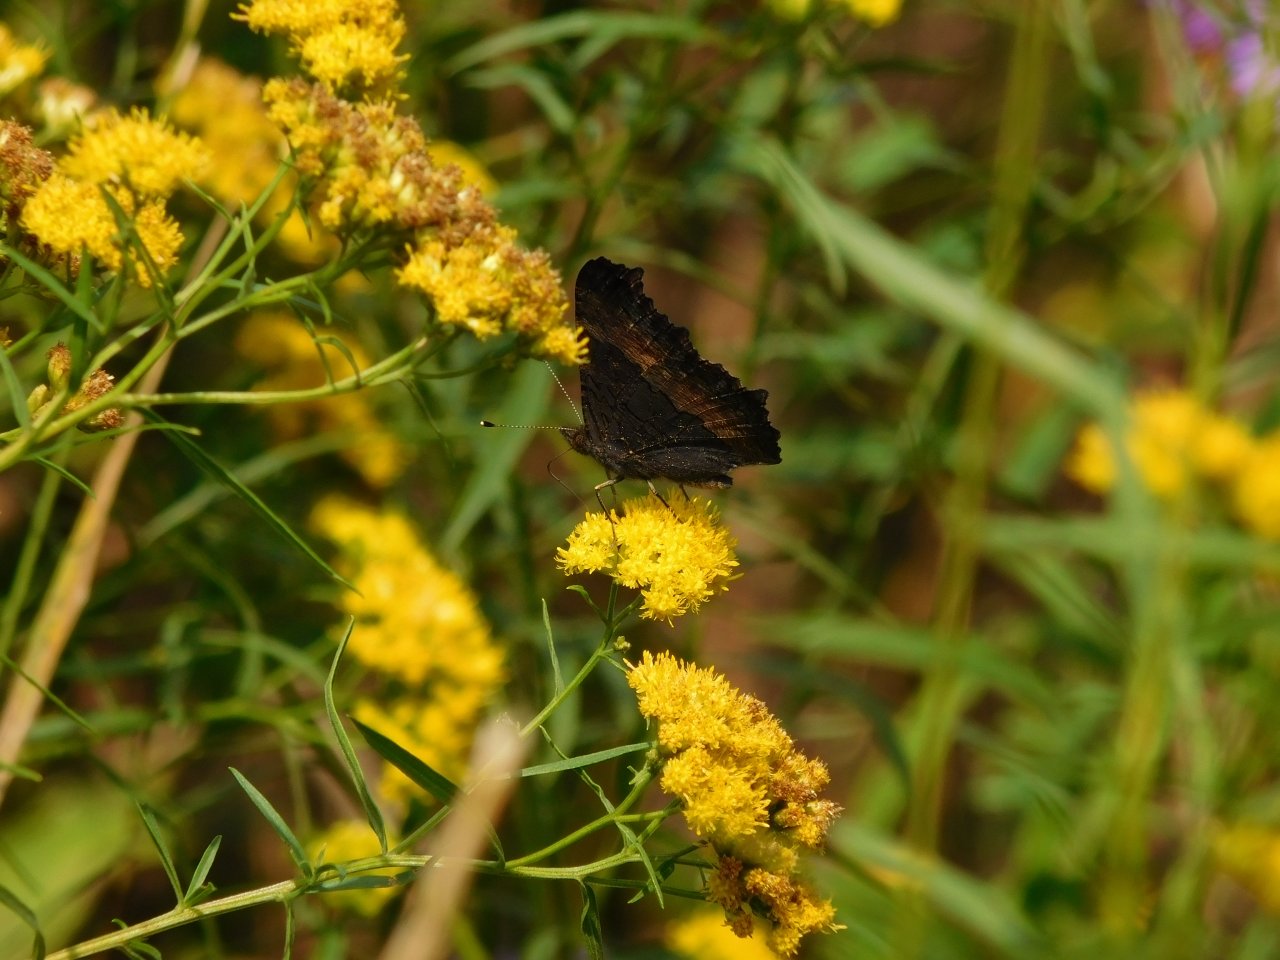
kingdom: Animalia
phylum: Arthropoda
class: Insecta
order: Lepidoptera
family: Nymphalidae
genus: Aglais
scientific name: Aglais milberti
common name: Milbert's Tortoiseshell
